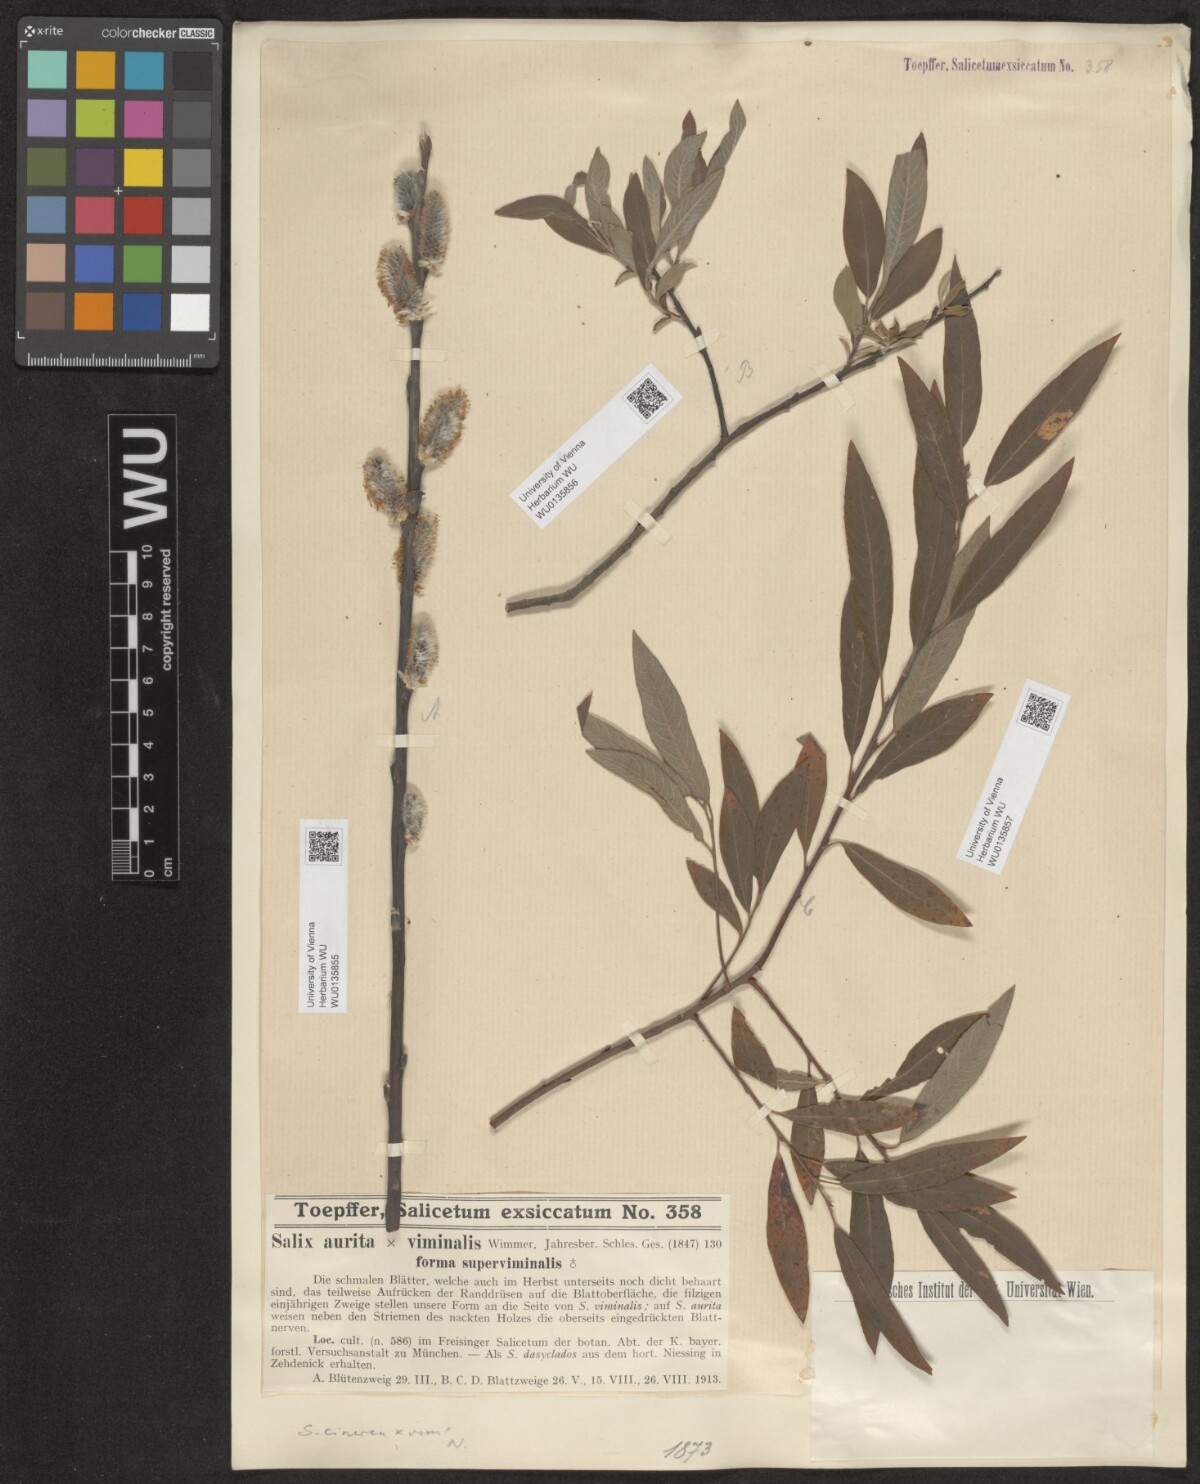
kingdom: Plantae
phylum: Tracheophyta
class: Magnoliopsida
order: Malpighiales
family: Salicaceae
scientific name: Salicaceae
